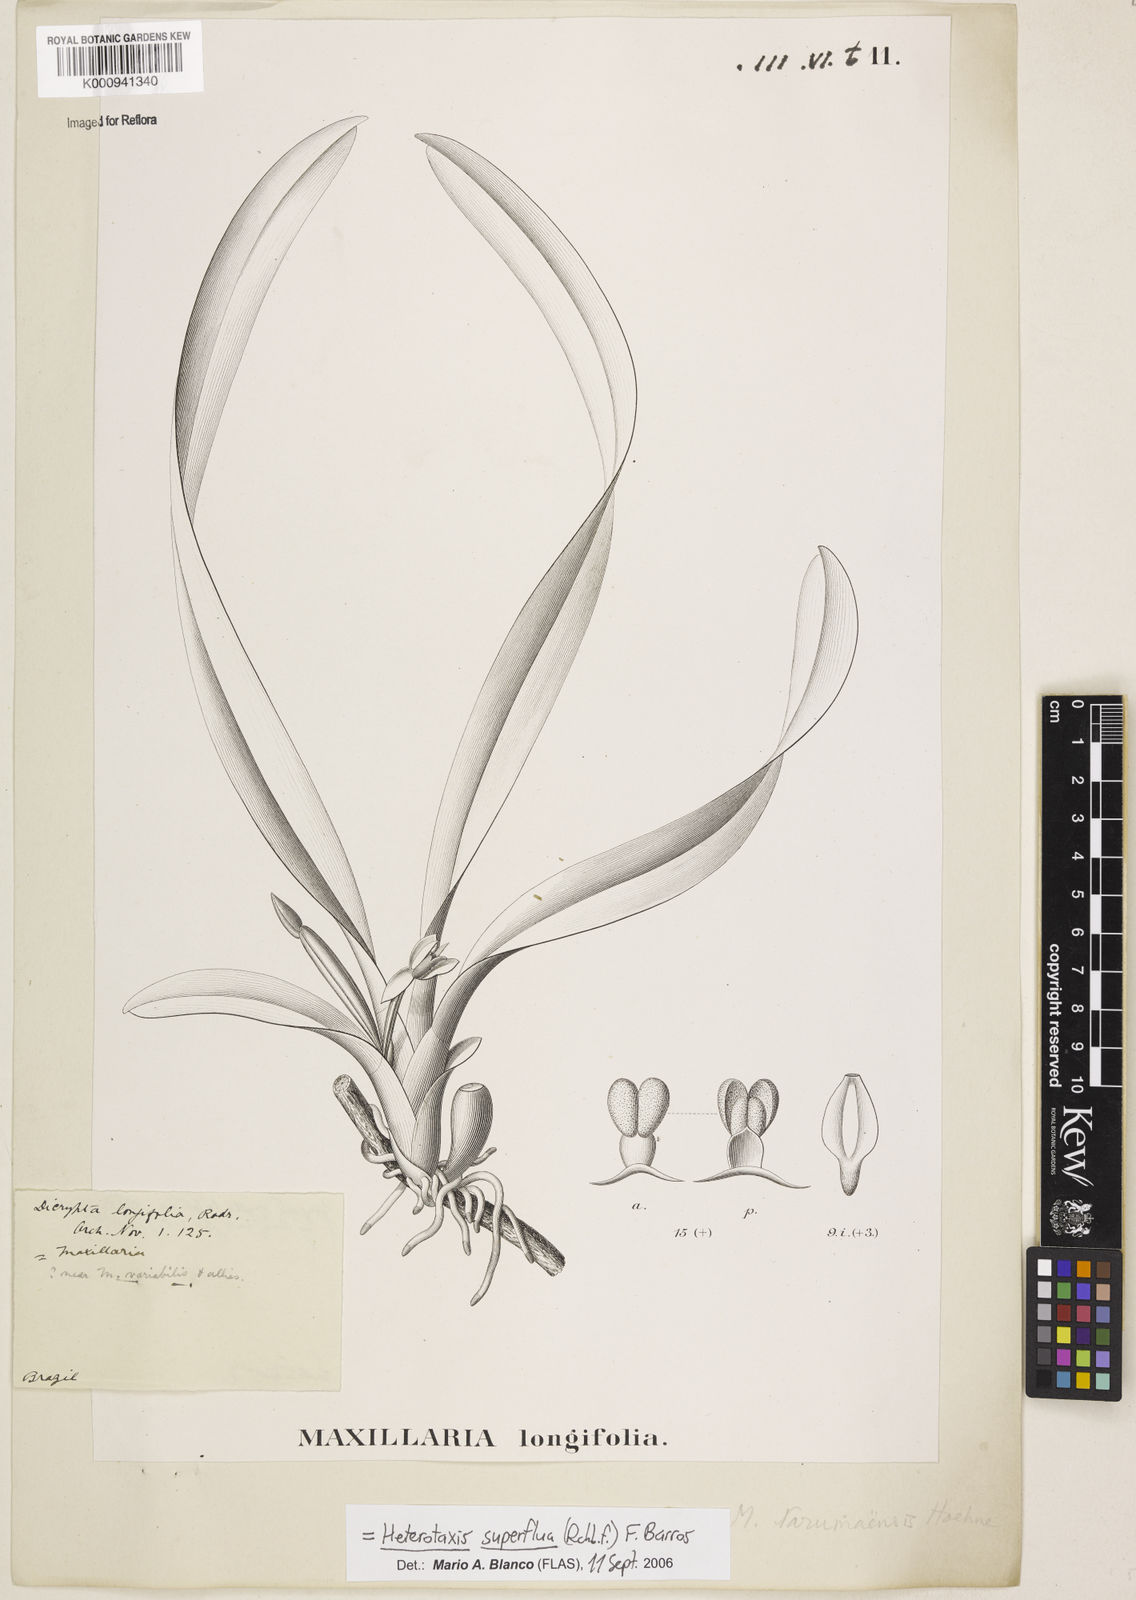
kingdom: Plantae
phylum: Tracheophyta
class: Liliopsida
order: Asparagales
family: Orchidaceae
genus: Maxillaria
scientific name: Maxillaria superflua
